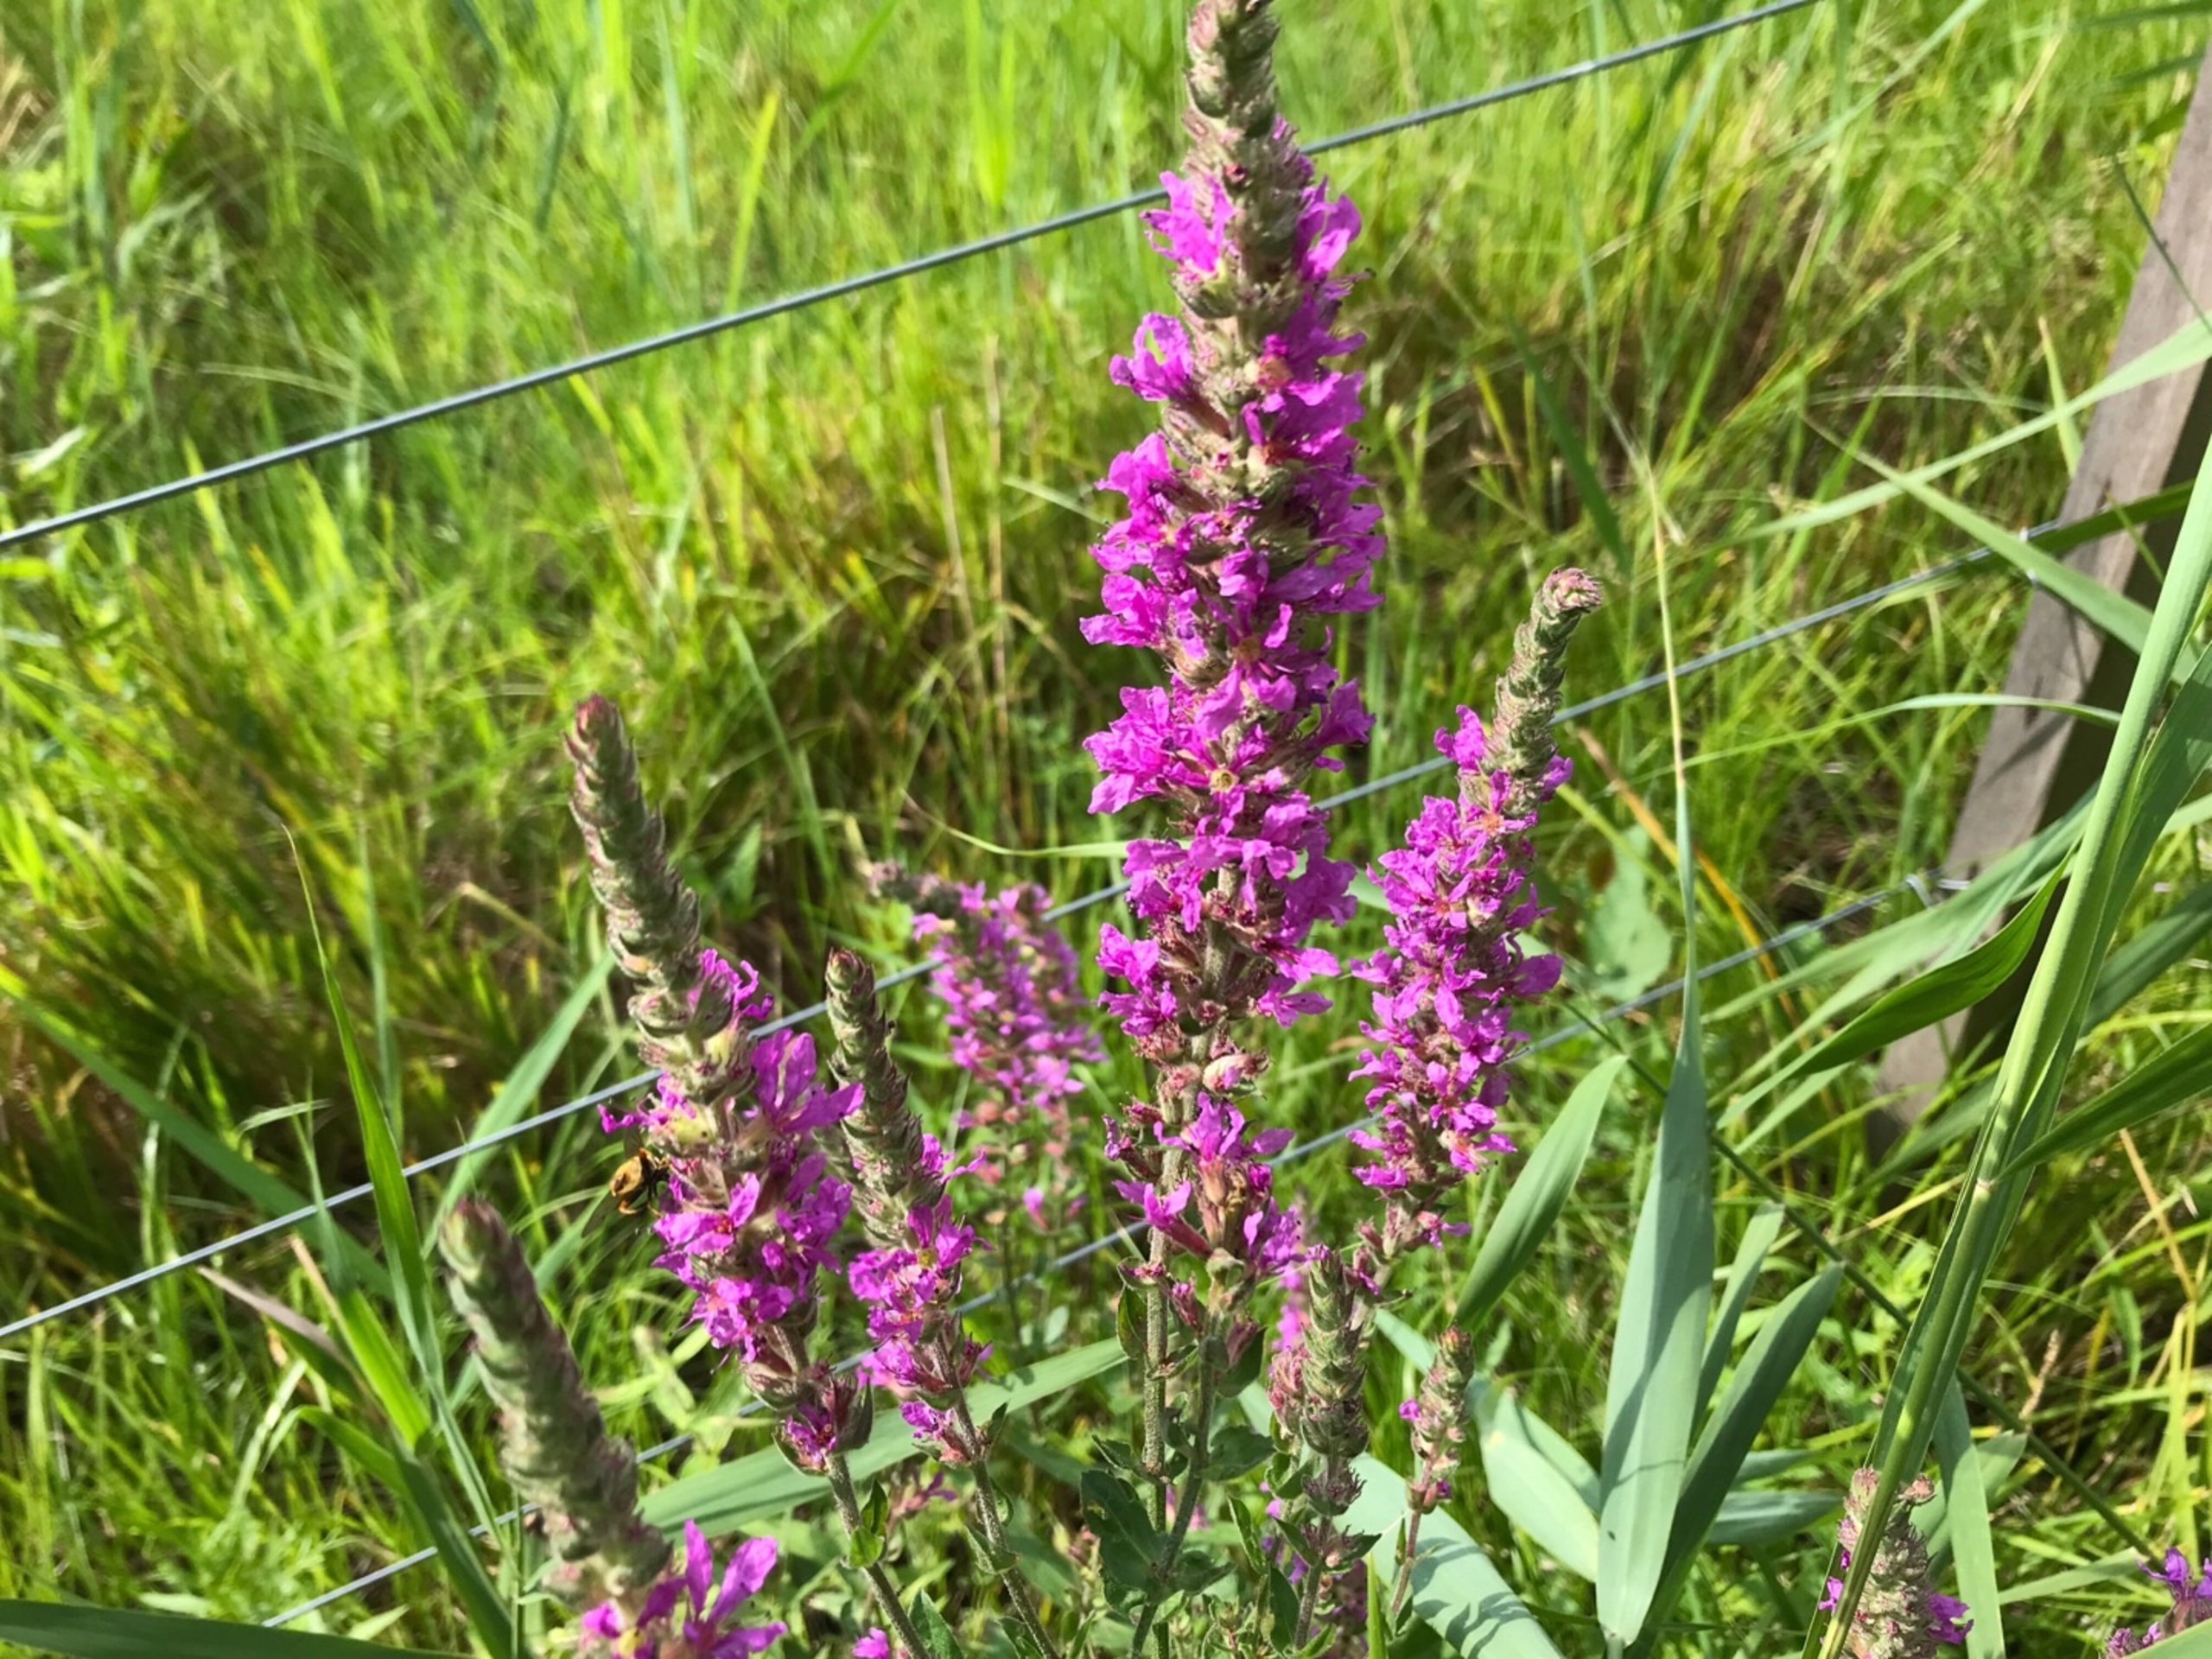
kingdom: Plantae
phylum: Tracheophyta
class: Magnoliopsida
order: Myrtales
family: Lythraceae
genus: Lythrum
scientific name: Lythrum salicaria
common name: Kattehale
